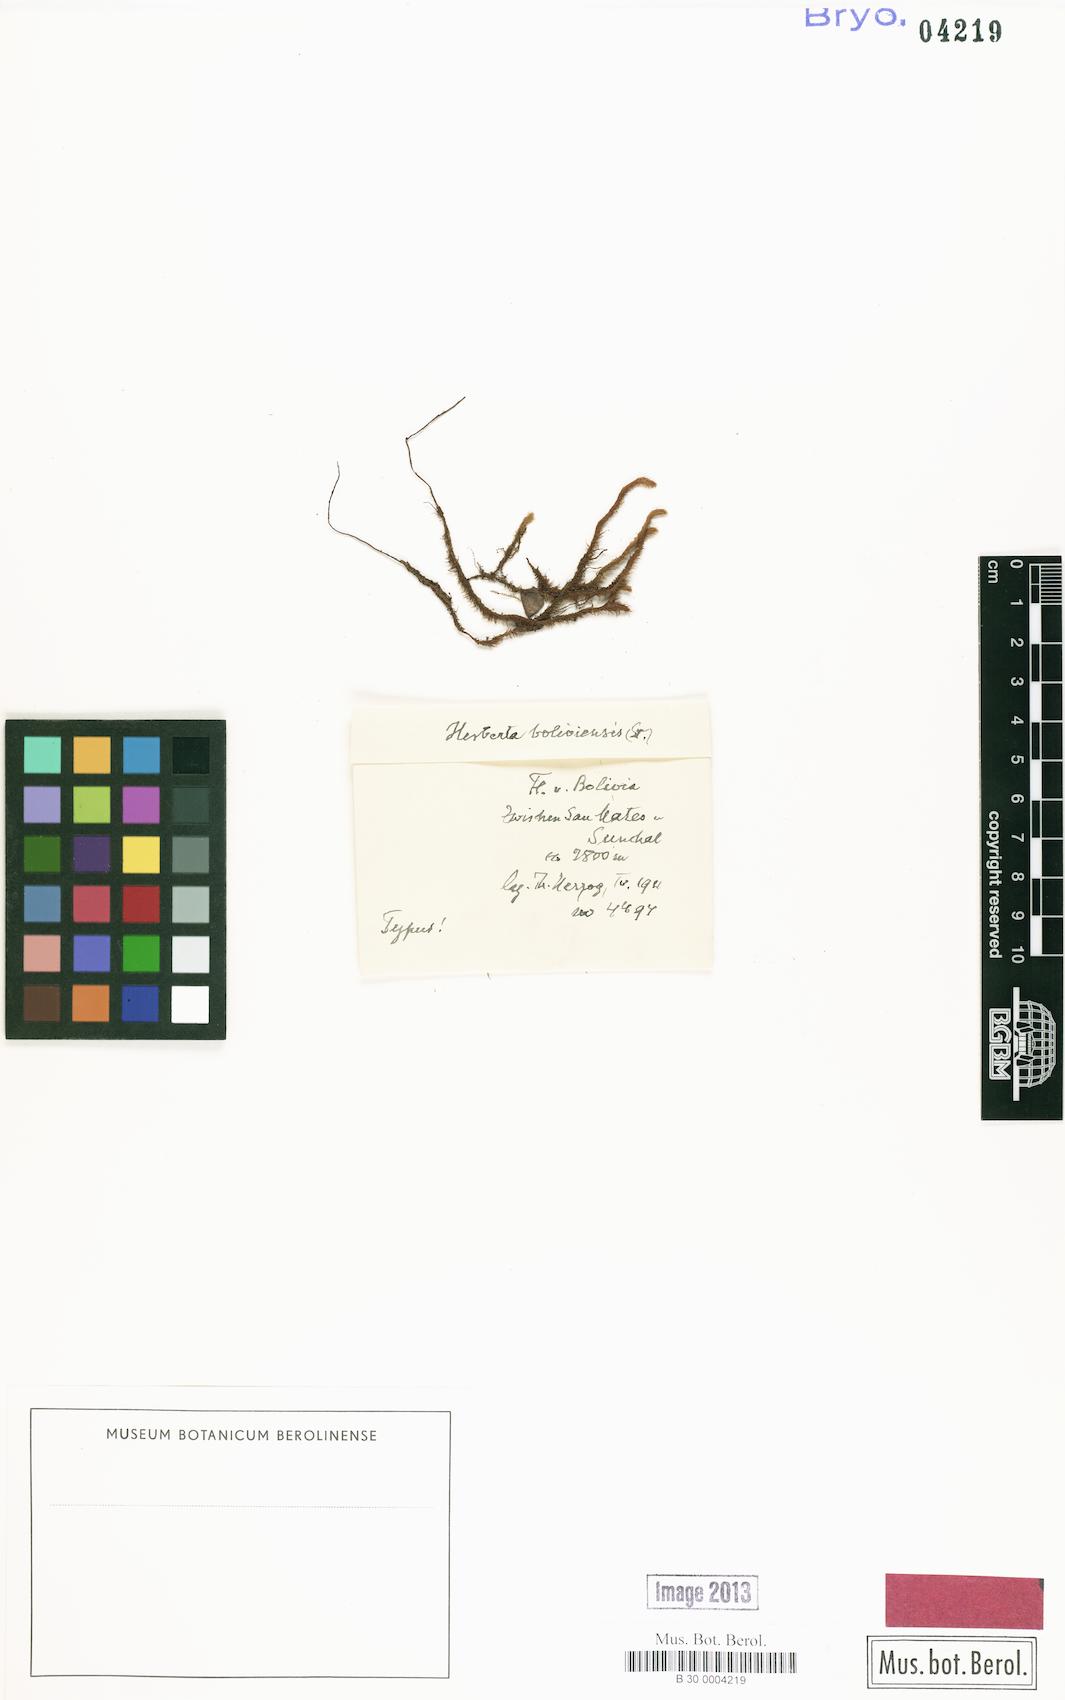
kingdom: Plantae
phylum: Marchantiophyta
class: Jungermanniopsida
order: Jungermanniales
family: Herbertaceae
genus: Herberta
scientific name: Herberta
